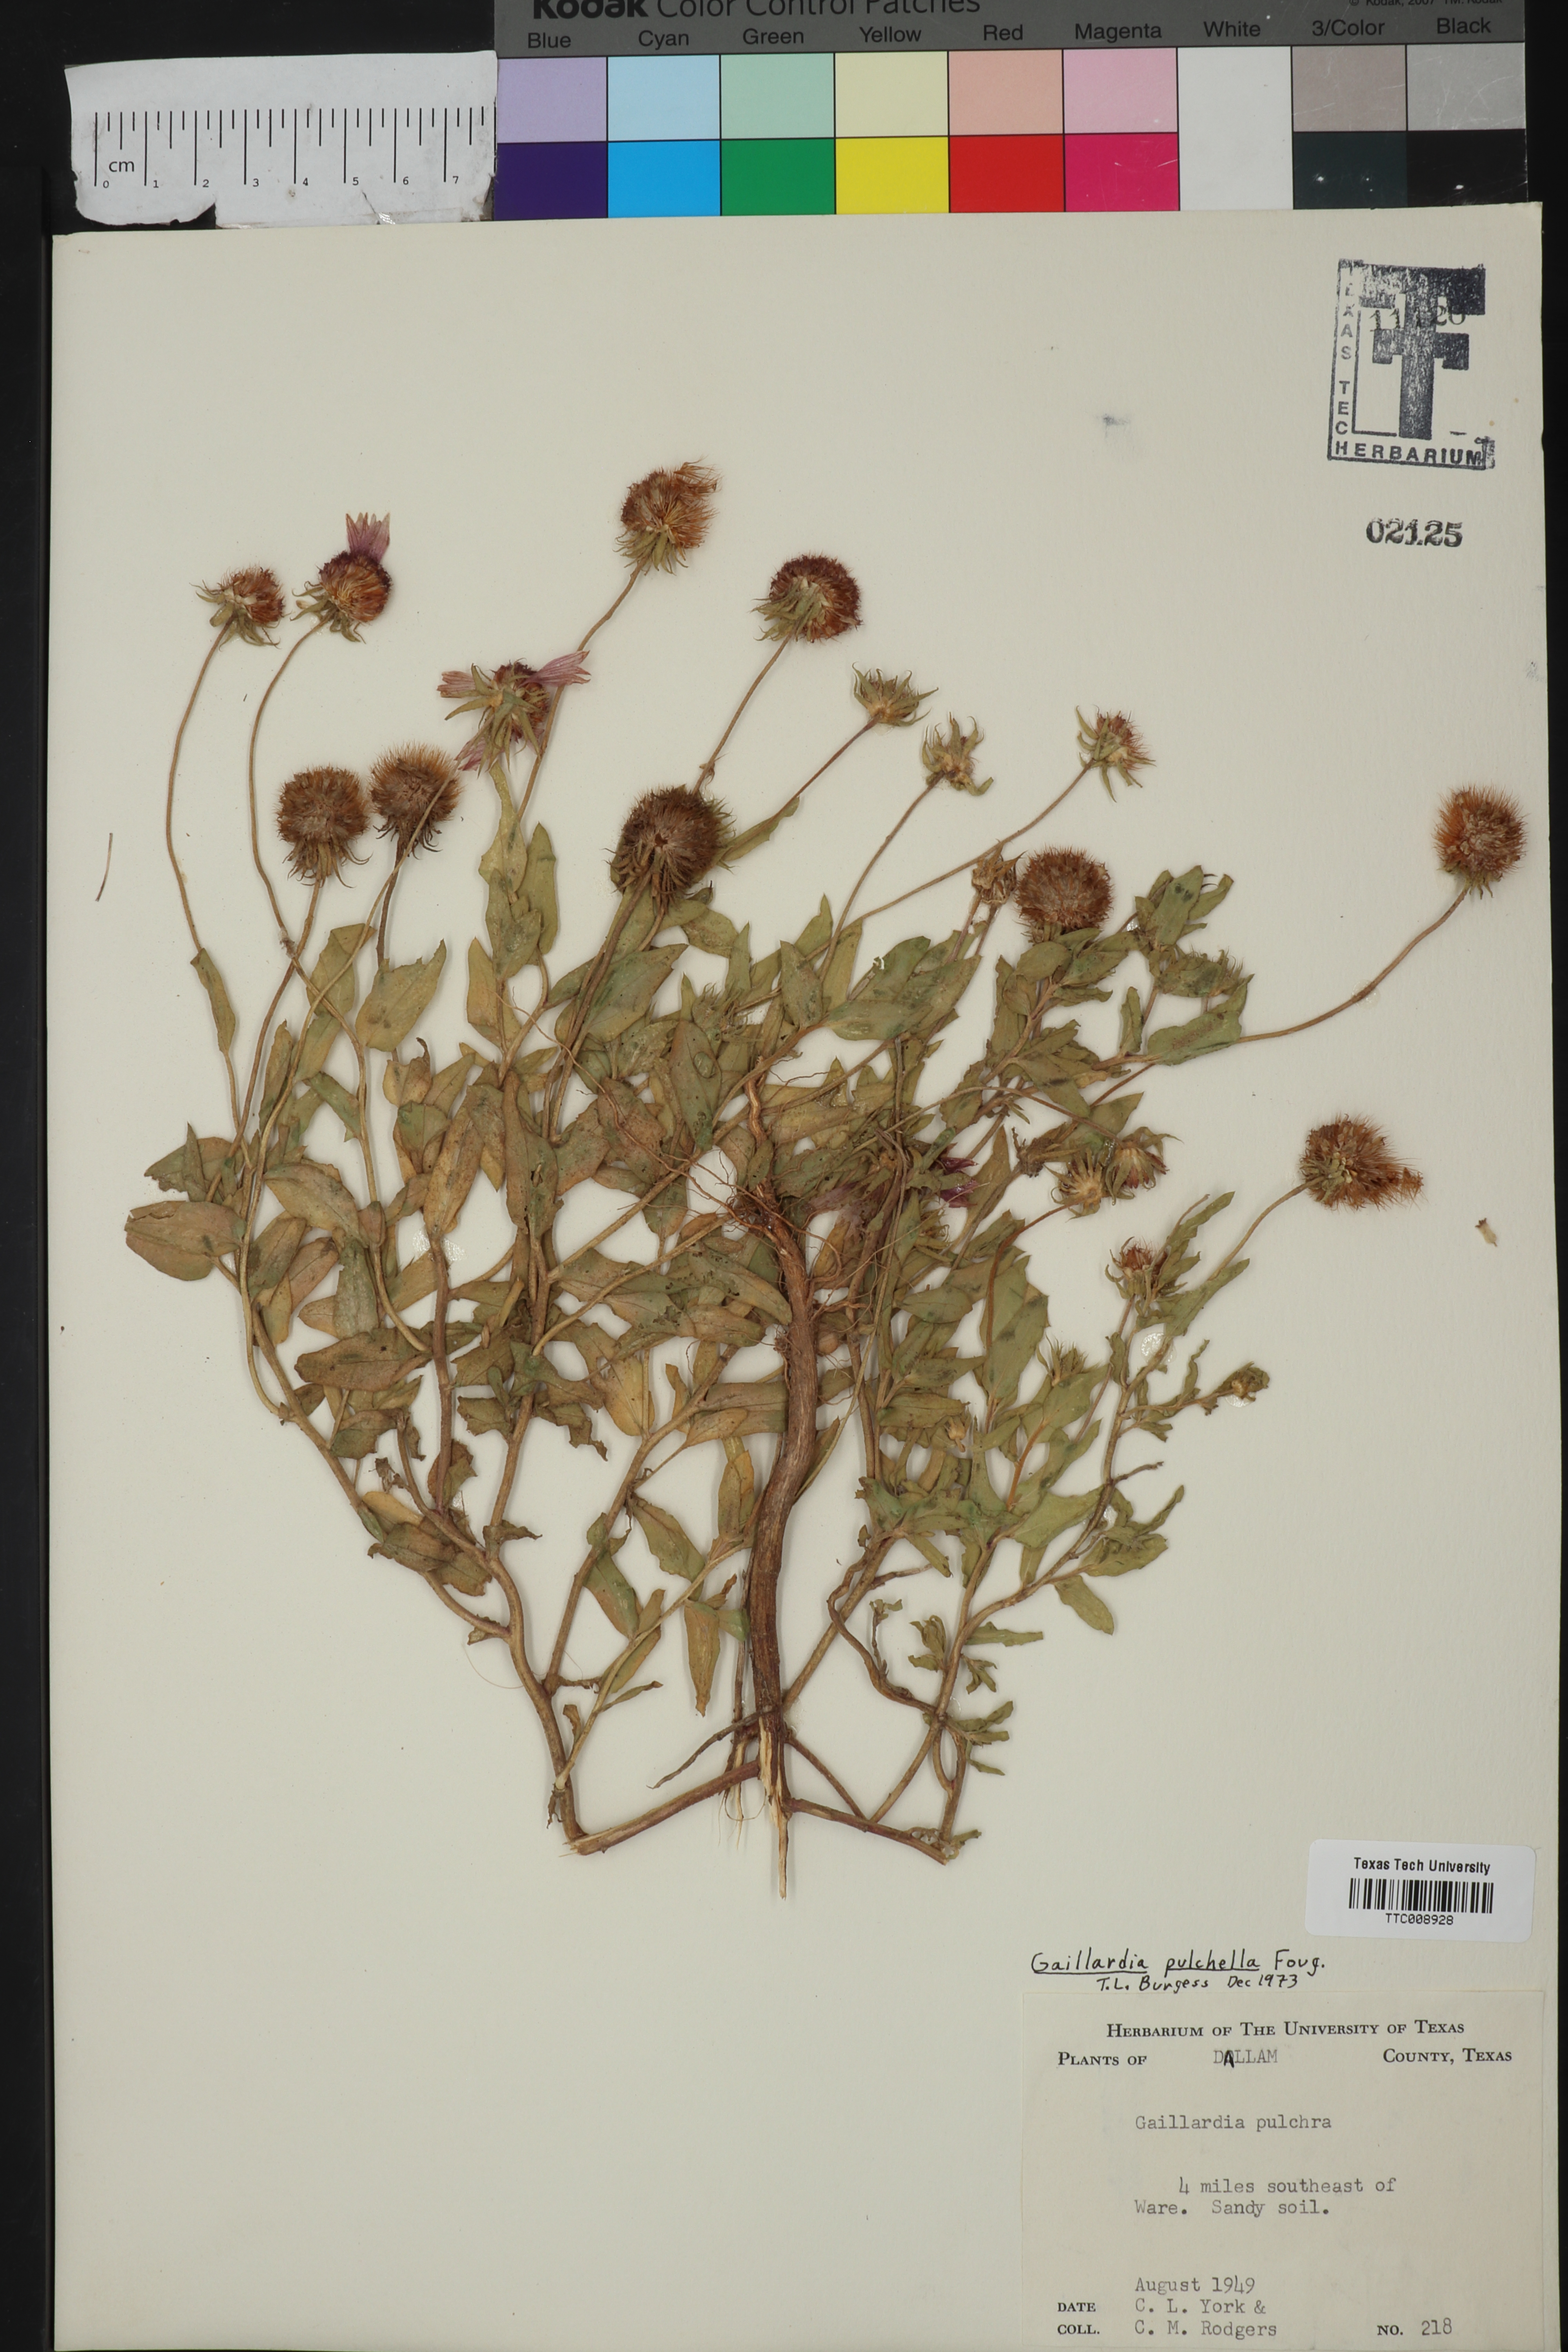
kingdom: Plantae
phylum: Tracheophyta
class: Magnoliopsida
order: Asterales
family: Asteraceae
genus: Gaillardia
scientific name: Gaillardia pulchella
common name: Firewheel
